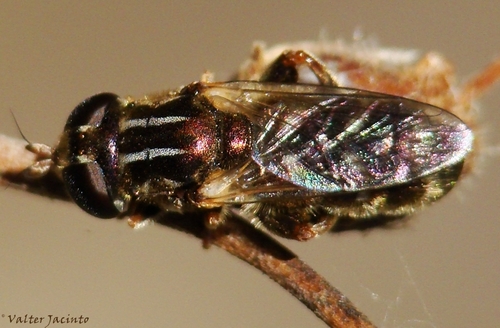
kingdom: Animalia
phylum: Arthropoda
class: Insecta
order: Diptera
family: Syrphidae
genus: Eumerus
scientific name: Eumerus barbarus
